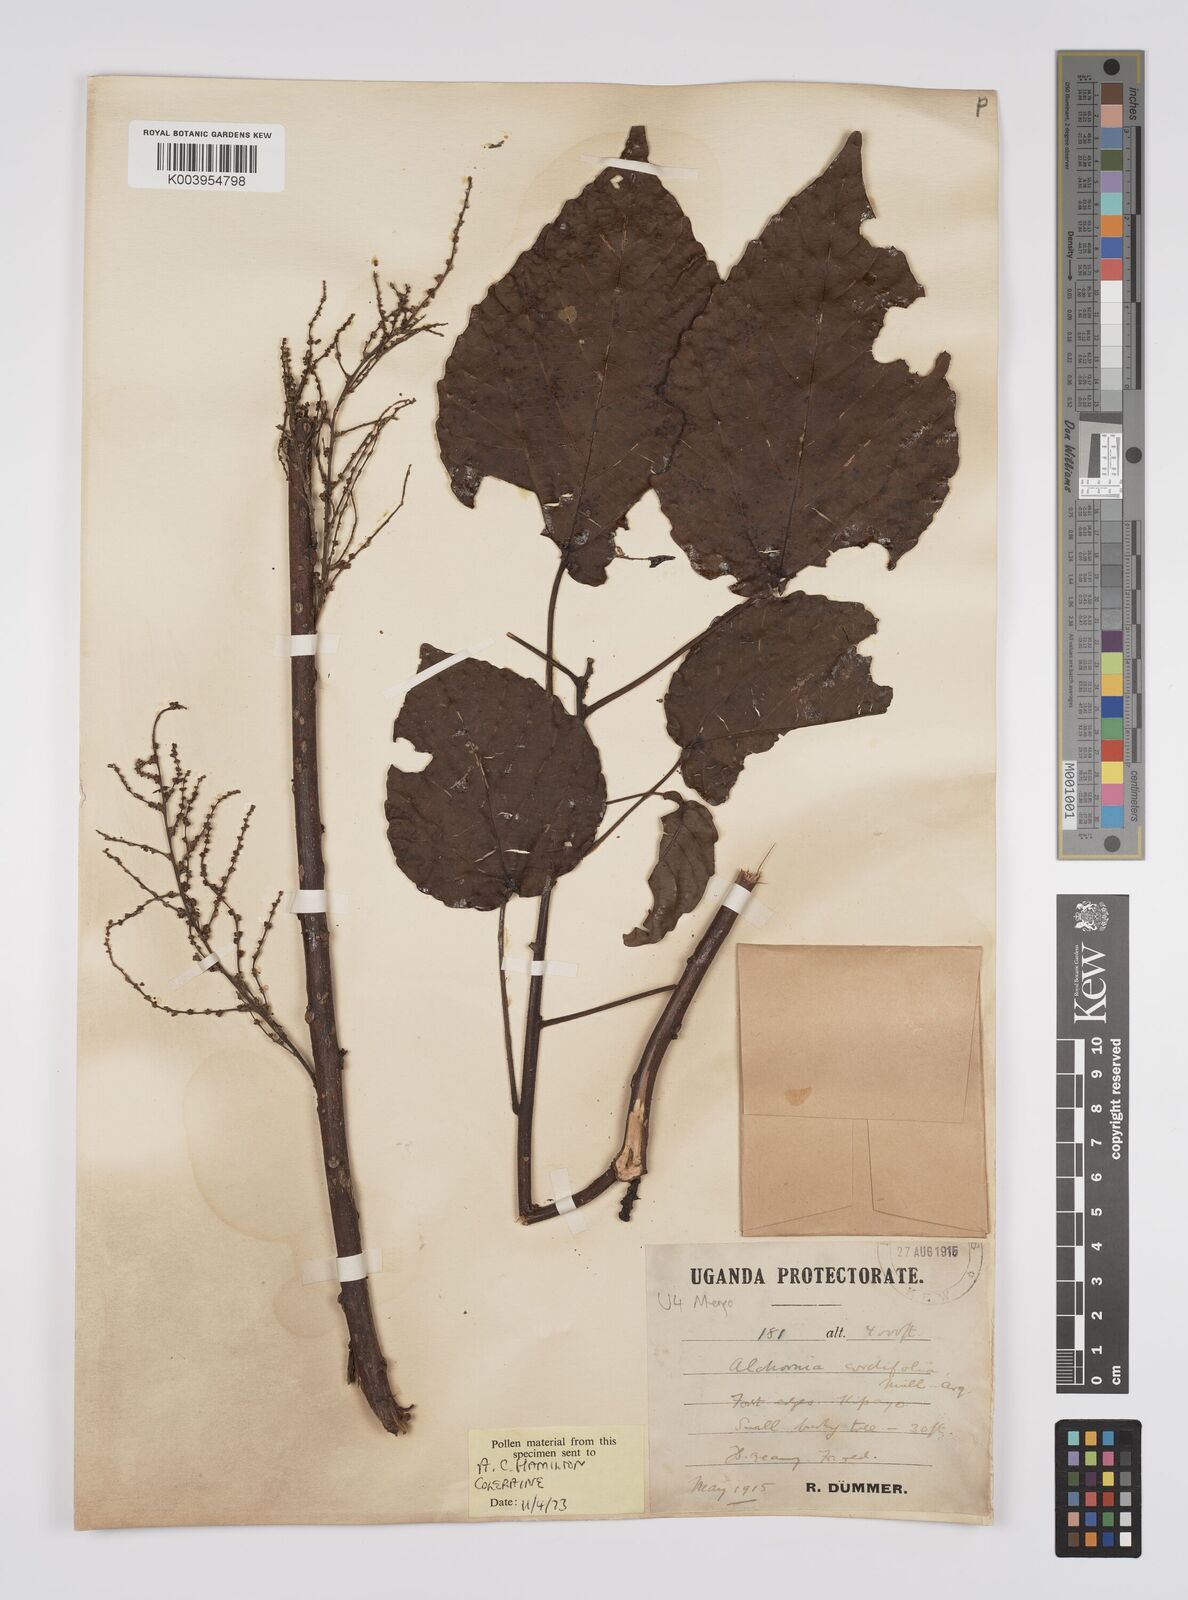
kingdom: Plantae
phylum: Tracheophyta
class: Magnoliopsida
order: Malpighiales
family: Euphorbiaceae
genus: Alchornea
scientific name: Alchornea cordifolia
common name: Christmasbush
